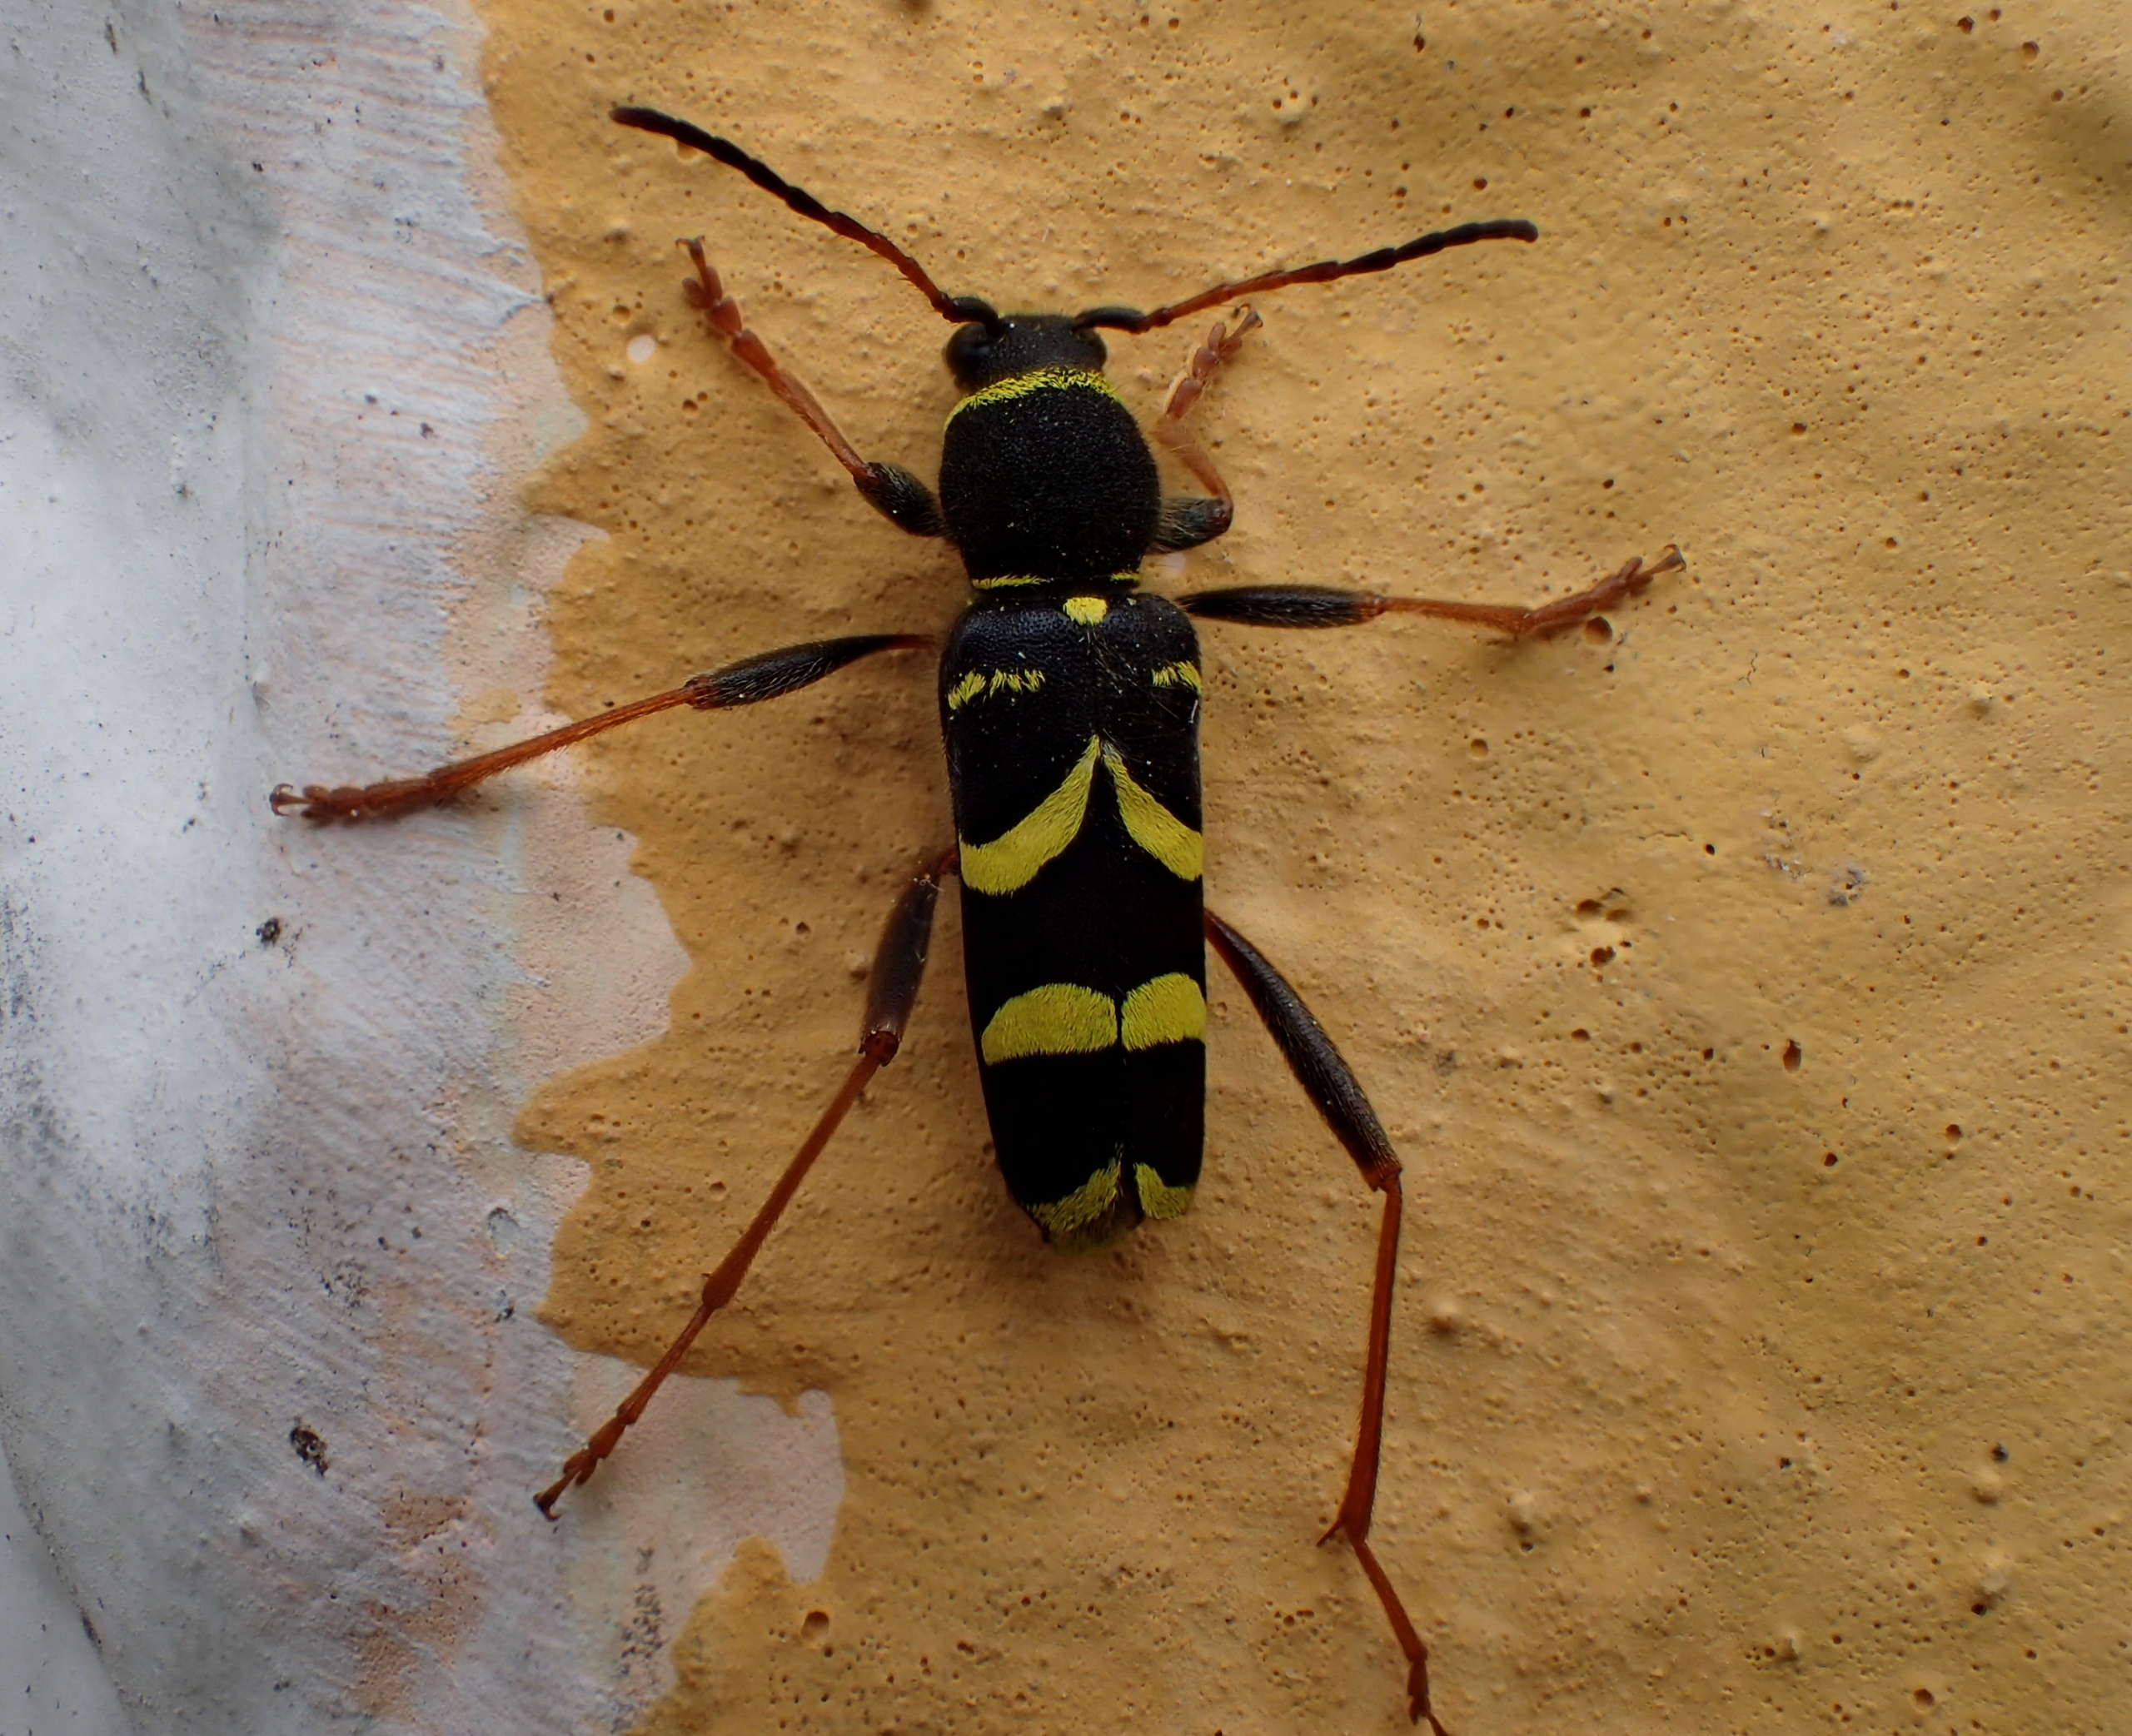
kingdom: Animalia
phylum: Arthropoda
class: Insecta
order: Coleoptera
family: Cerambycidae
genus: Clytus
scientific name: Clytus arietis
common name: Lille hvepsebuk
